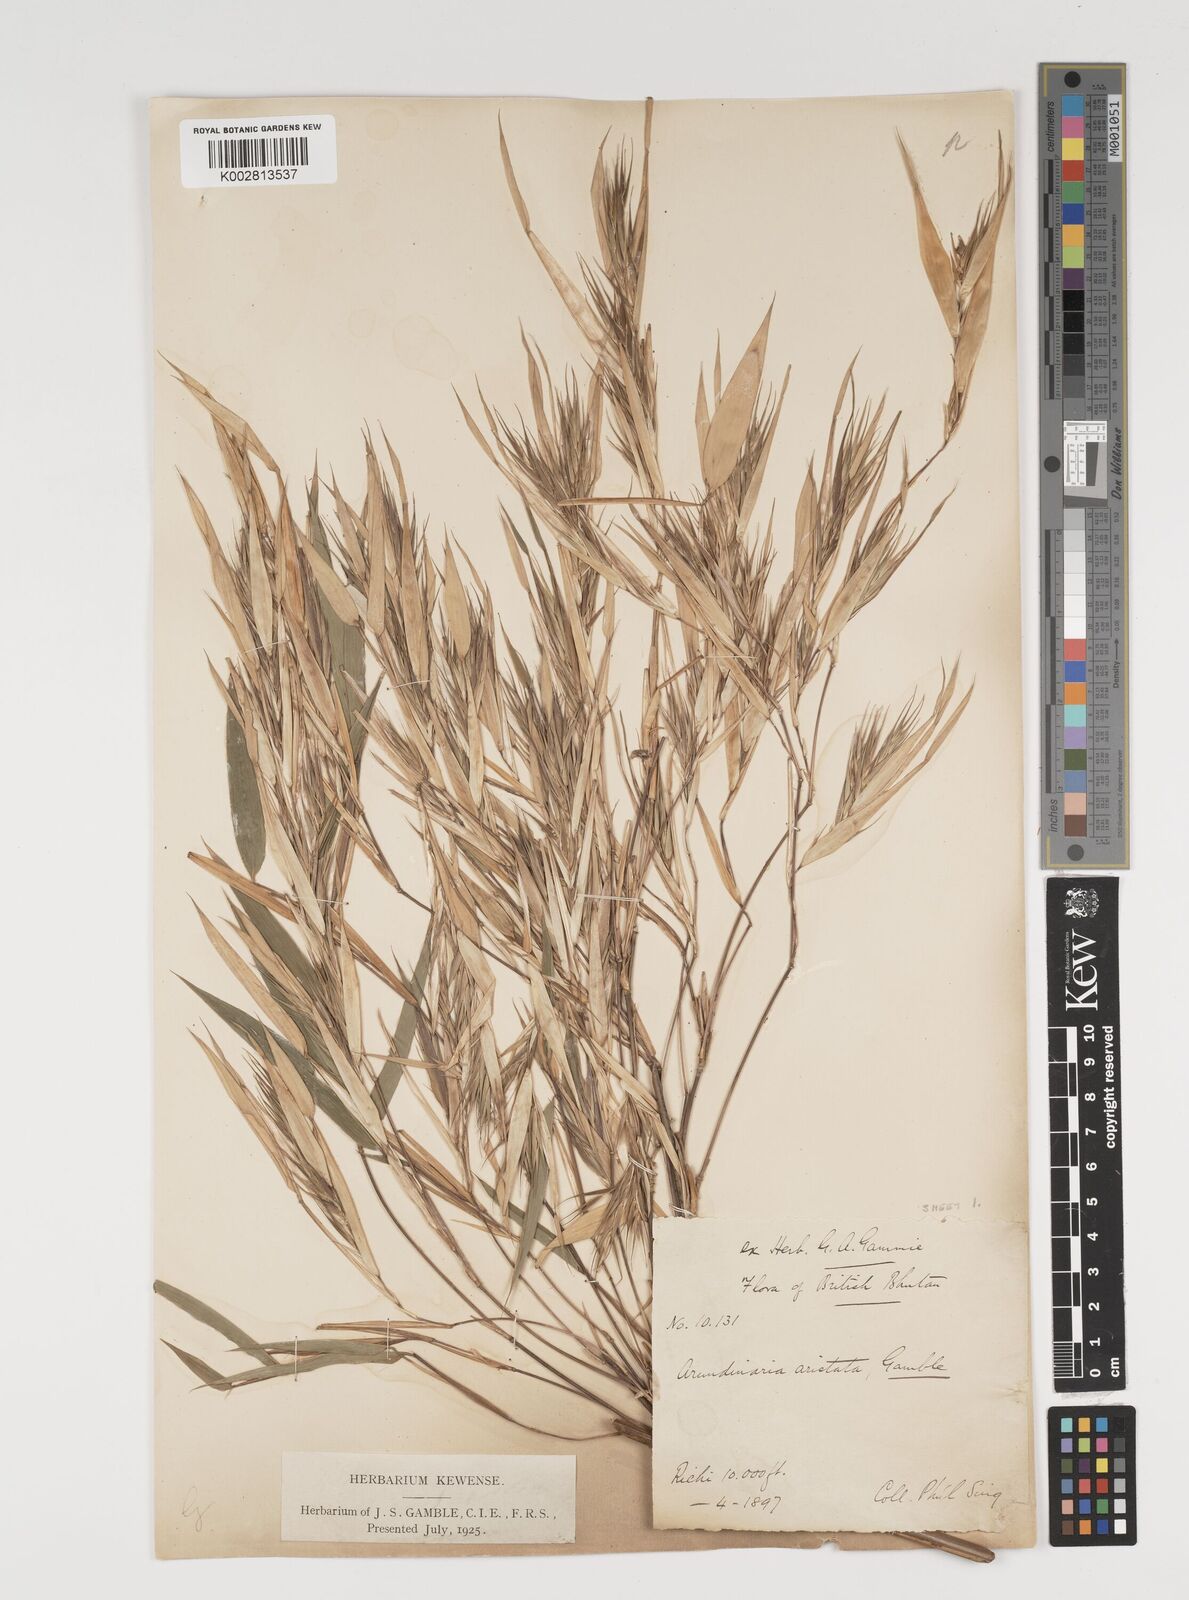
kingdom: Plantae
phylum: Tracheophyta
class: Liliopsida
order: Poales
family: Poaceae
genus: Thamnocalamus
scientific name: Thamnocalamus spathiflorus
